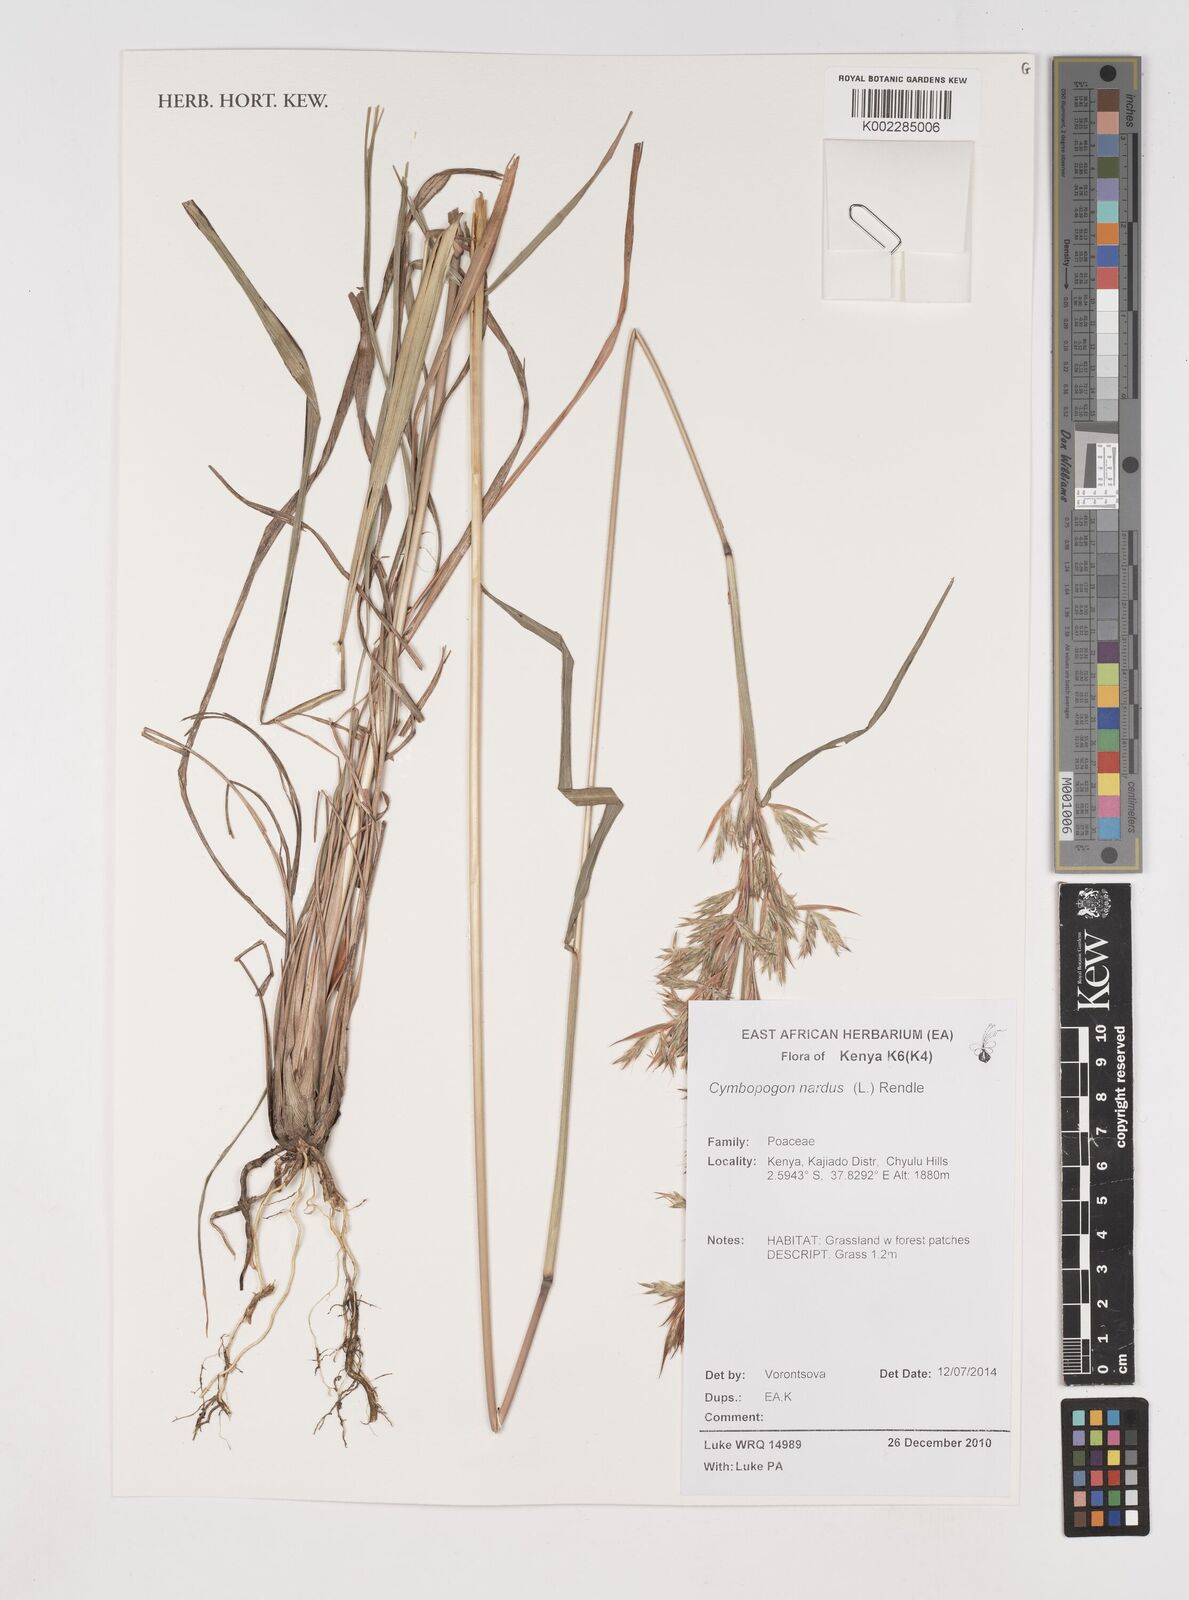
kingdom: Plantae
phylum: Tracheophyta
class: Liliopsida
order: Poales
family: Poaceae
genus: Cymbopogon
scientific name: Cymbopogon nardus
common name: Giant turpentine grass
